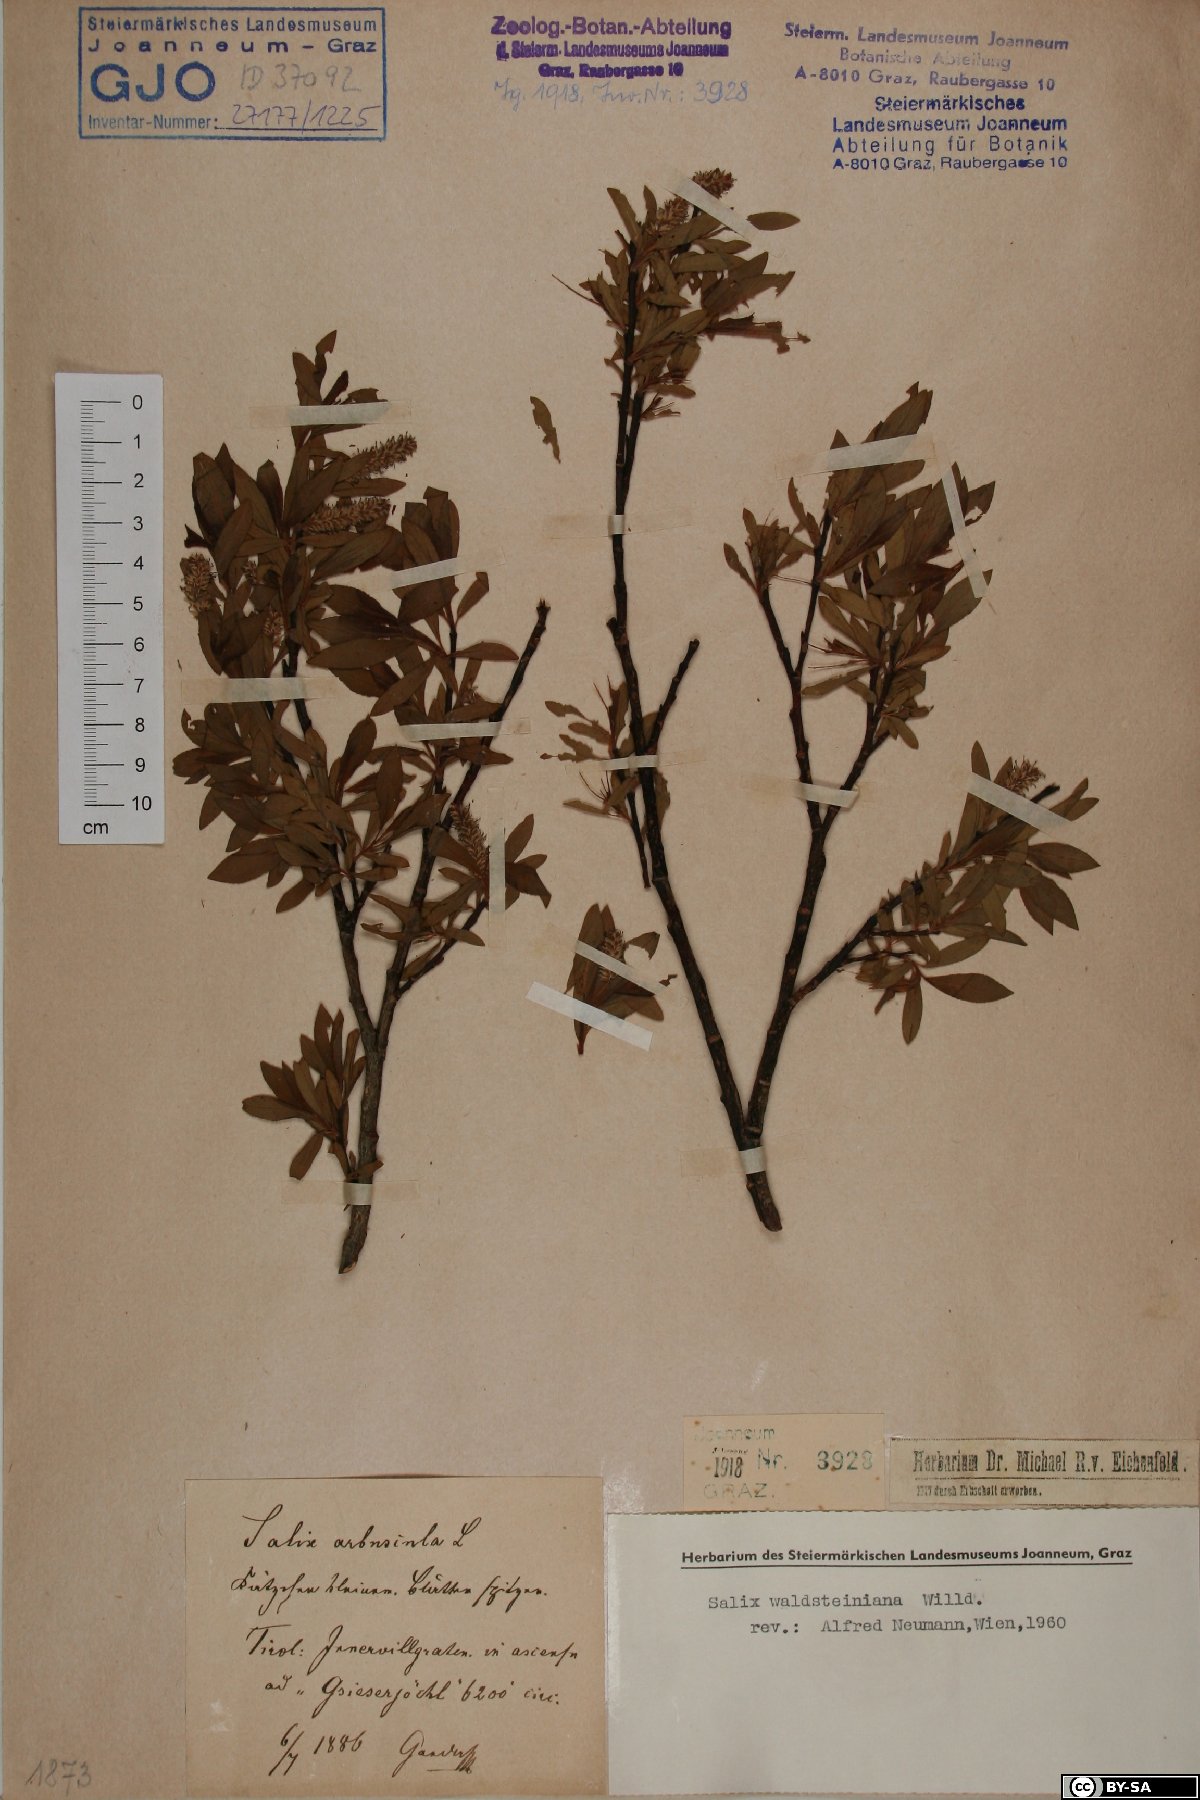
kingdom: Plantae
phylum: Tracheophyta
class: Magnoliopsida
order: Malpighiales
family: Salicaceae
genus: Salix
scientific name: Salix waldsteiniana
